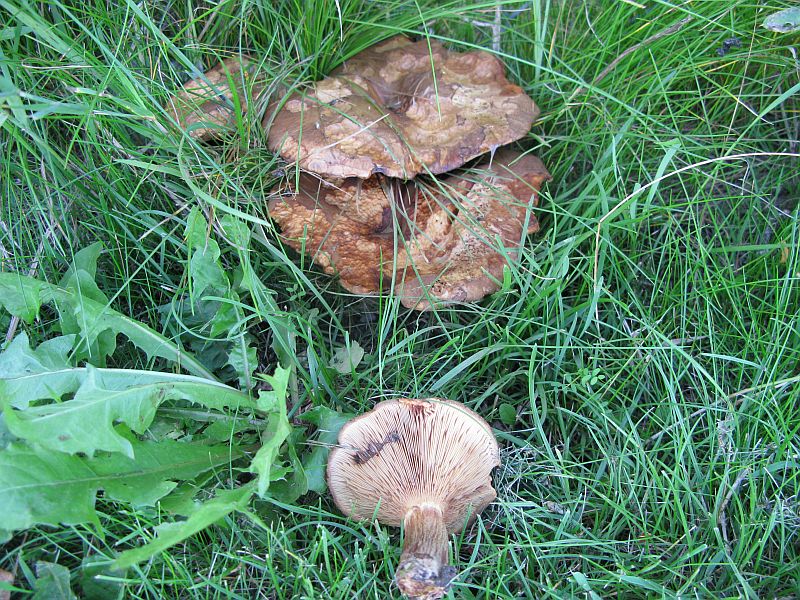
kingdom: Fungi
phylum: Basidiomycota
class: Agaricomycetes
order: Boletales
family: Paxillaceae
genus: Paxillus
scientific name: Paxillus obscurisporus
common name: mahognisporet netbladhat
